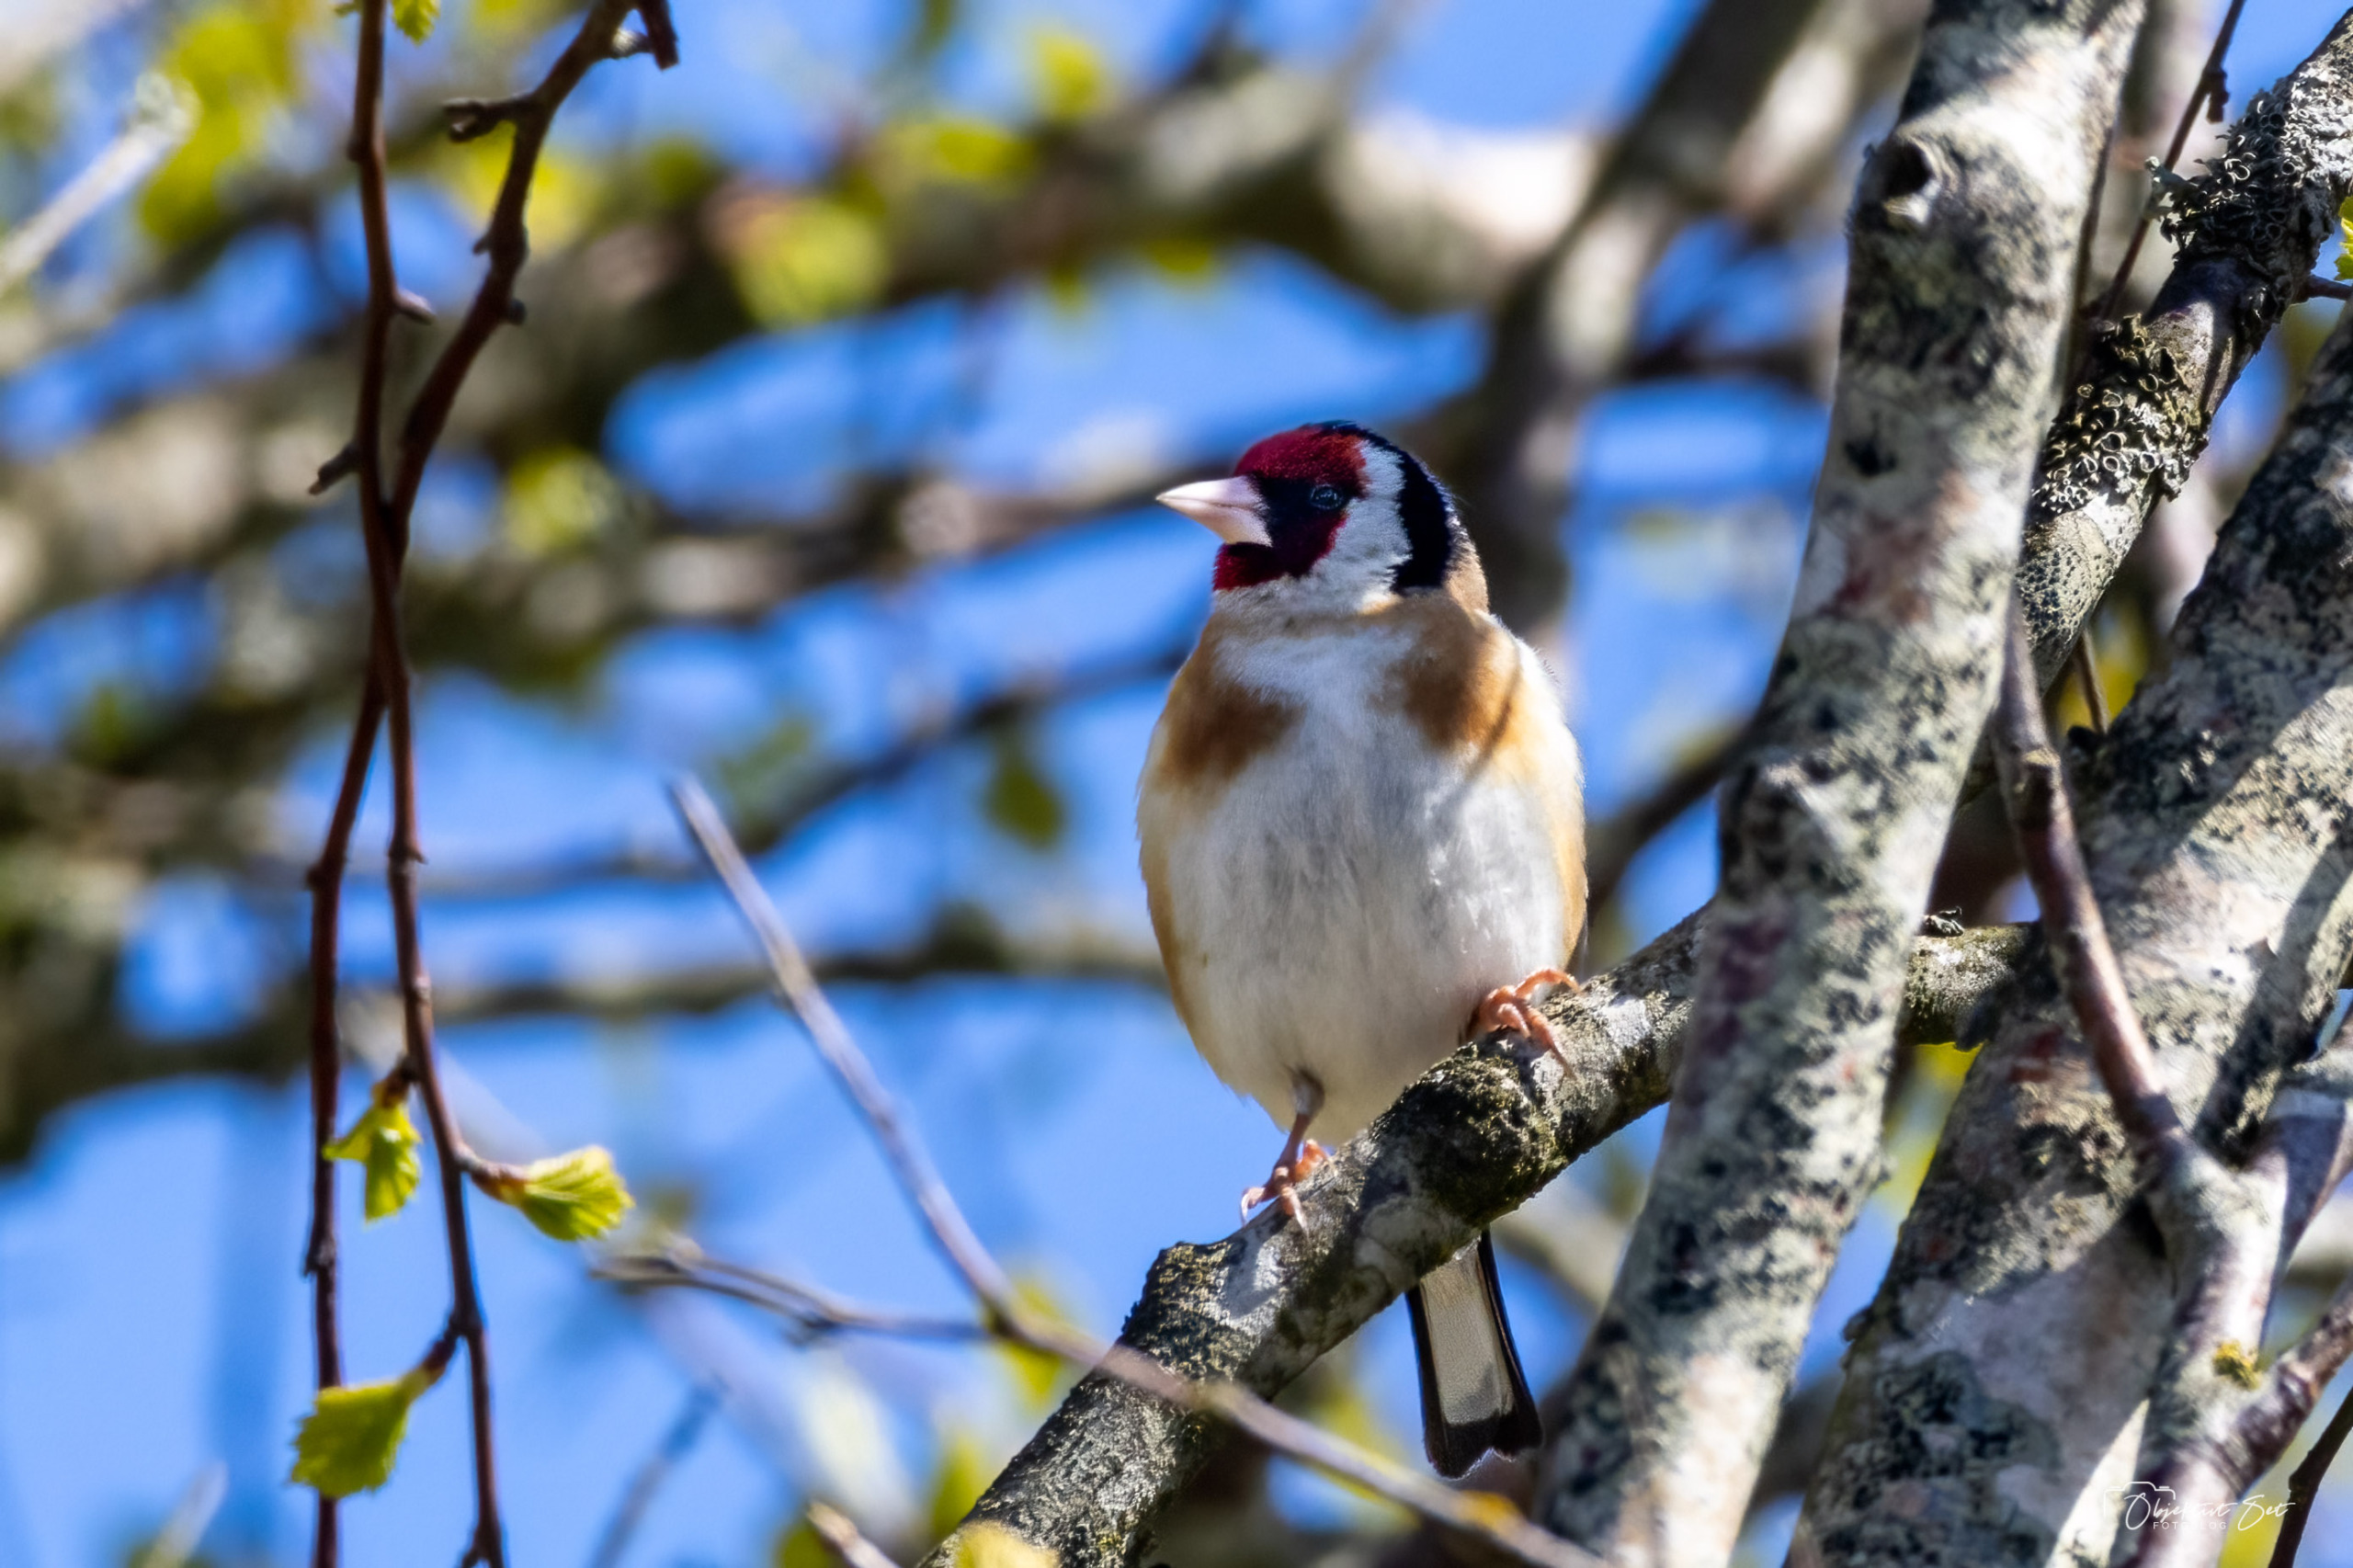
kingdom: Animalia
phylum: Chordata
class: Aves
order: Passeriformes
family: Fringillidae
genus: Carduelis
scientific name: Carduelis carduelis
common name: Stillits
